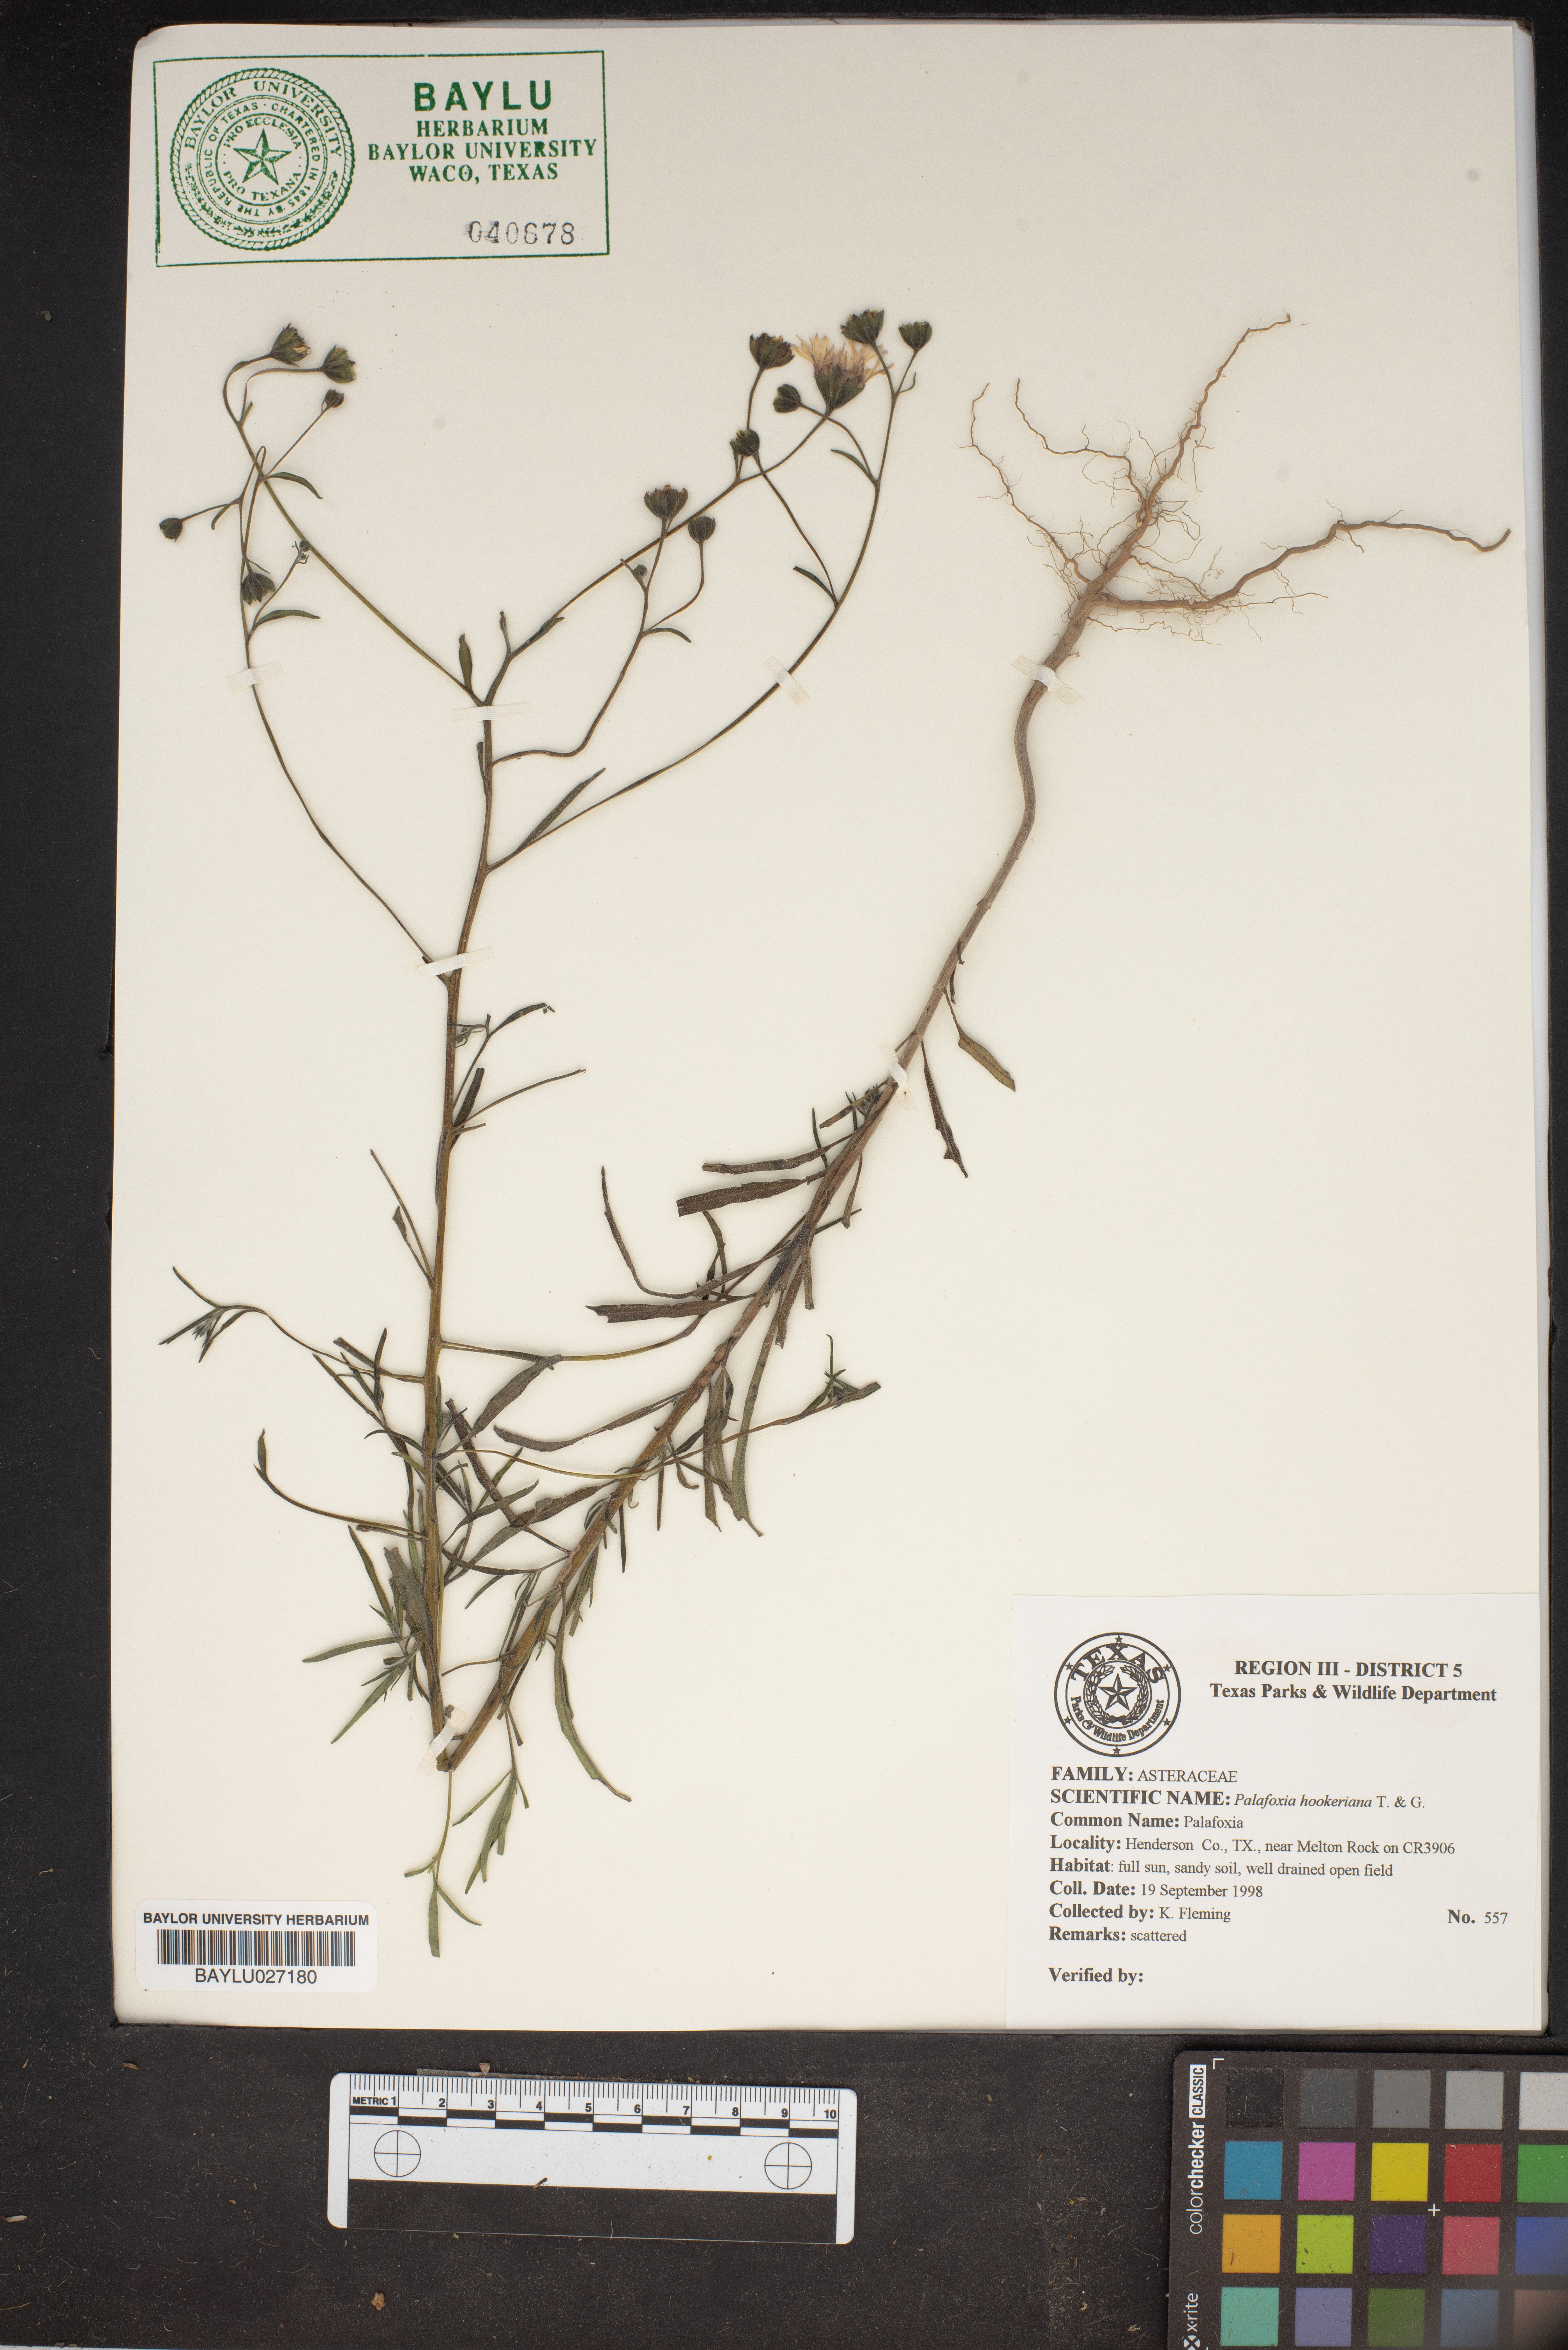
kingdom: Plantae
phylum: Tracheophyta
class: Magnoliopsida
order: Asterales
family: Asteraceae
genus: Palafoxia
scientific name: Palafoxia hookeriana
